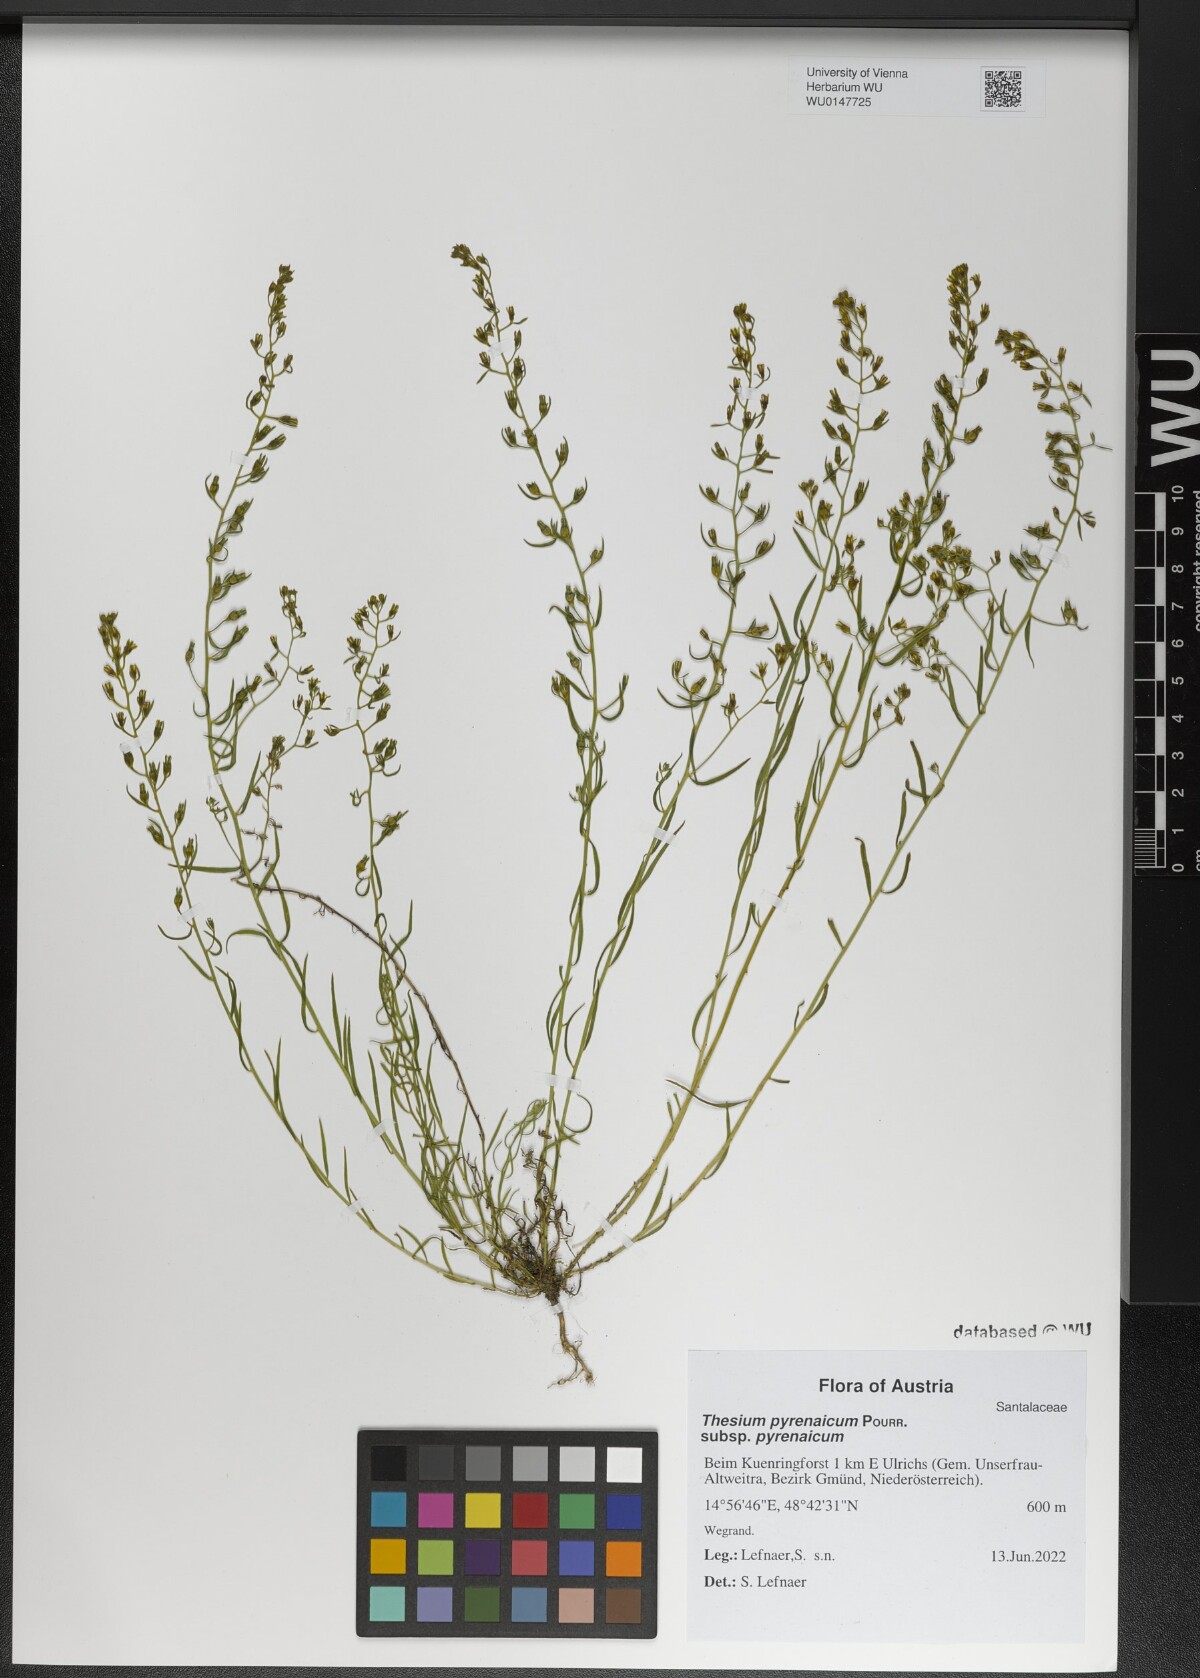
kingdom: Plantae
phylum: Tracheophyta
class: Magnoliopsida
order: Santalales
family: Thesiaceae
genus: Thesium
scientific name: Thesium pyrenaicum
